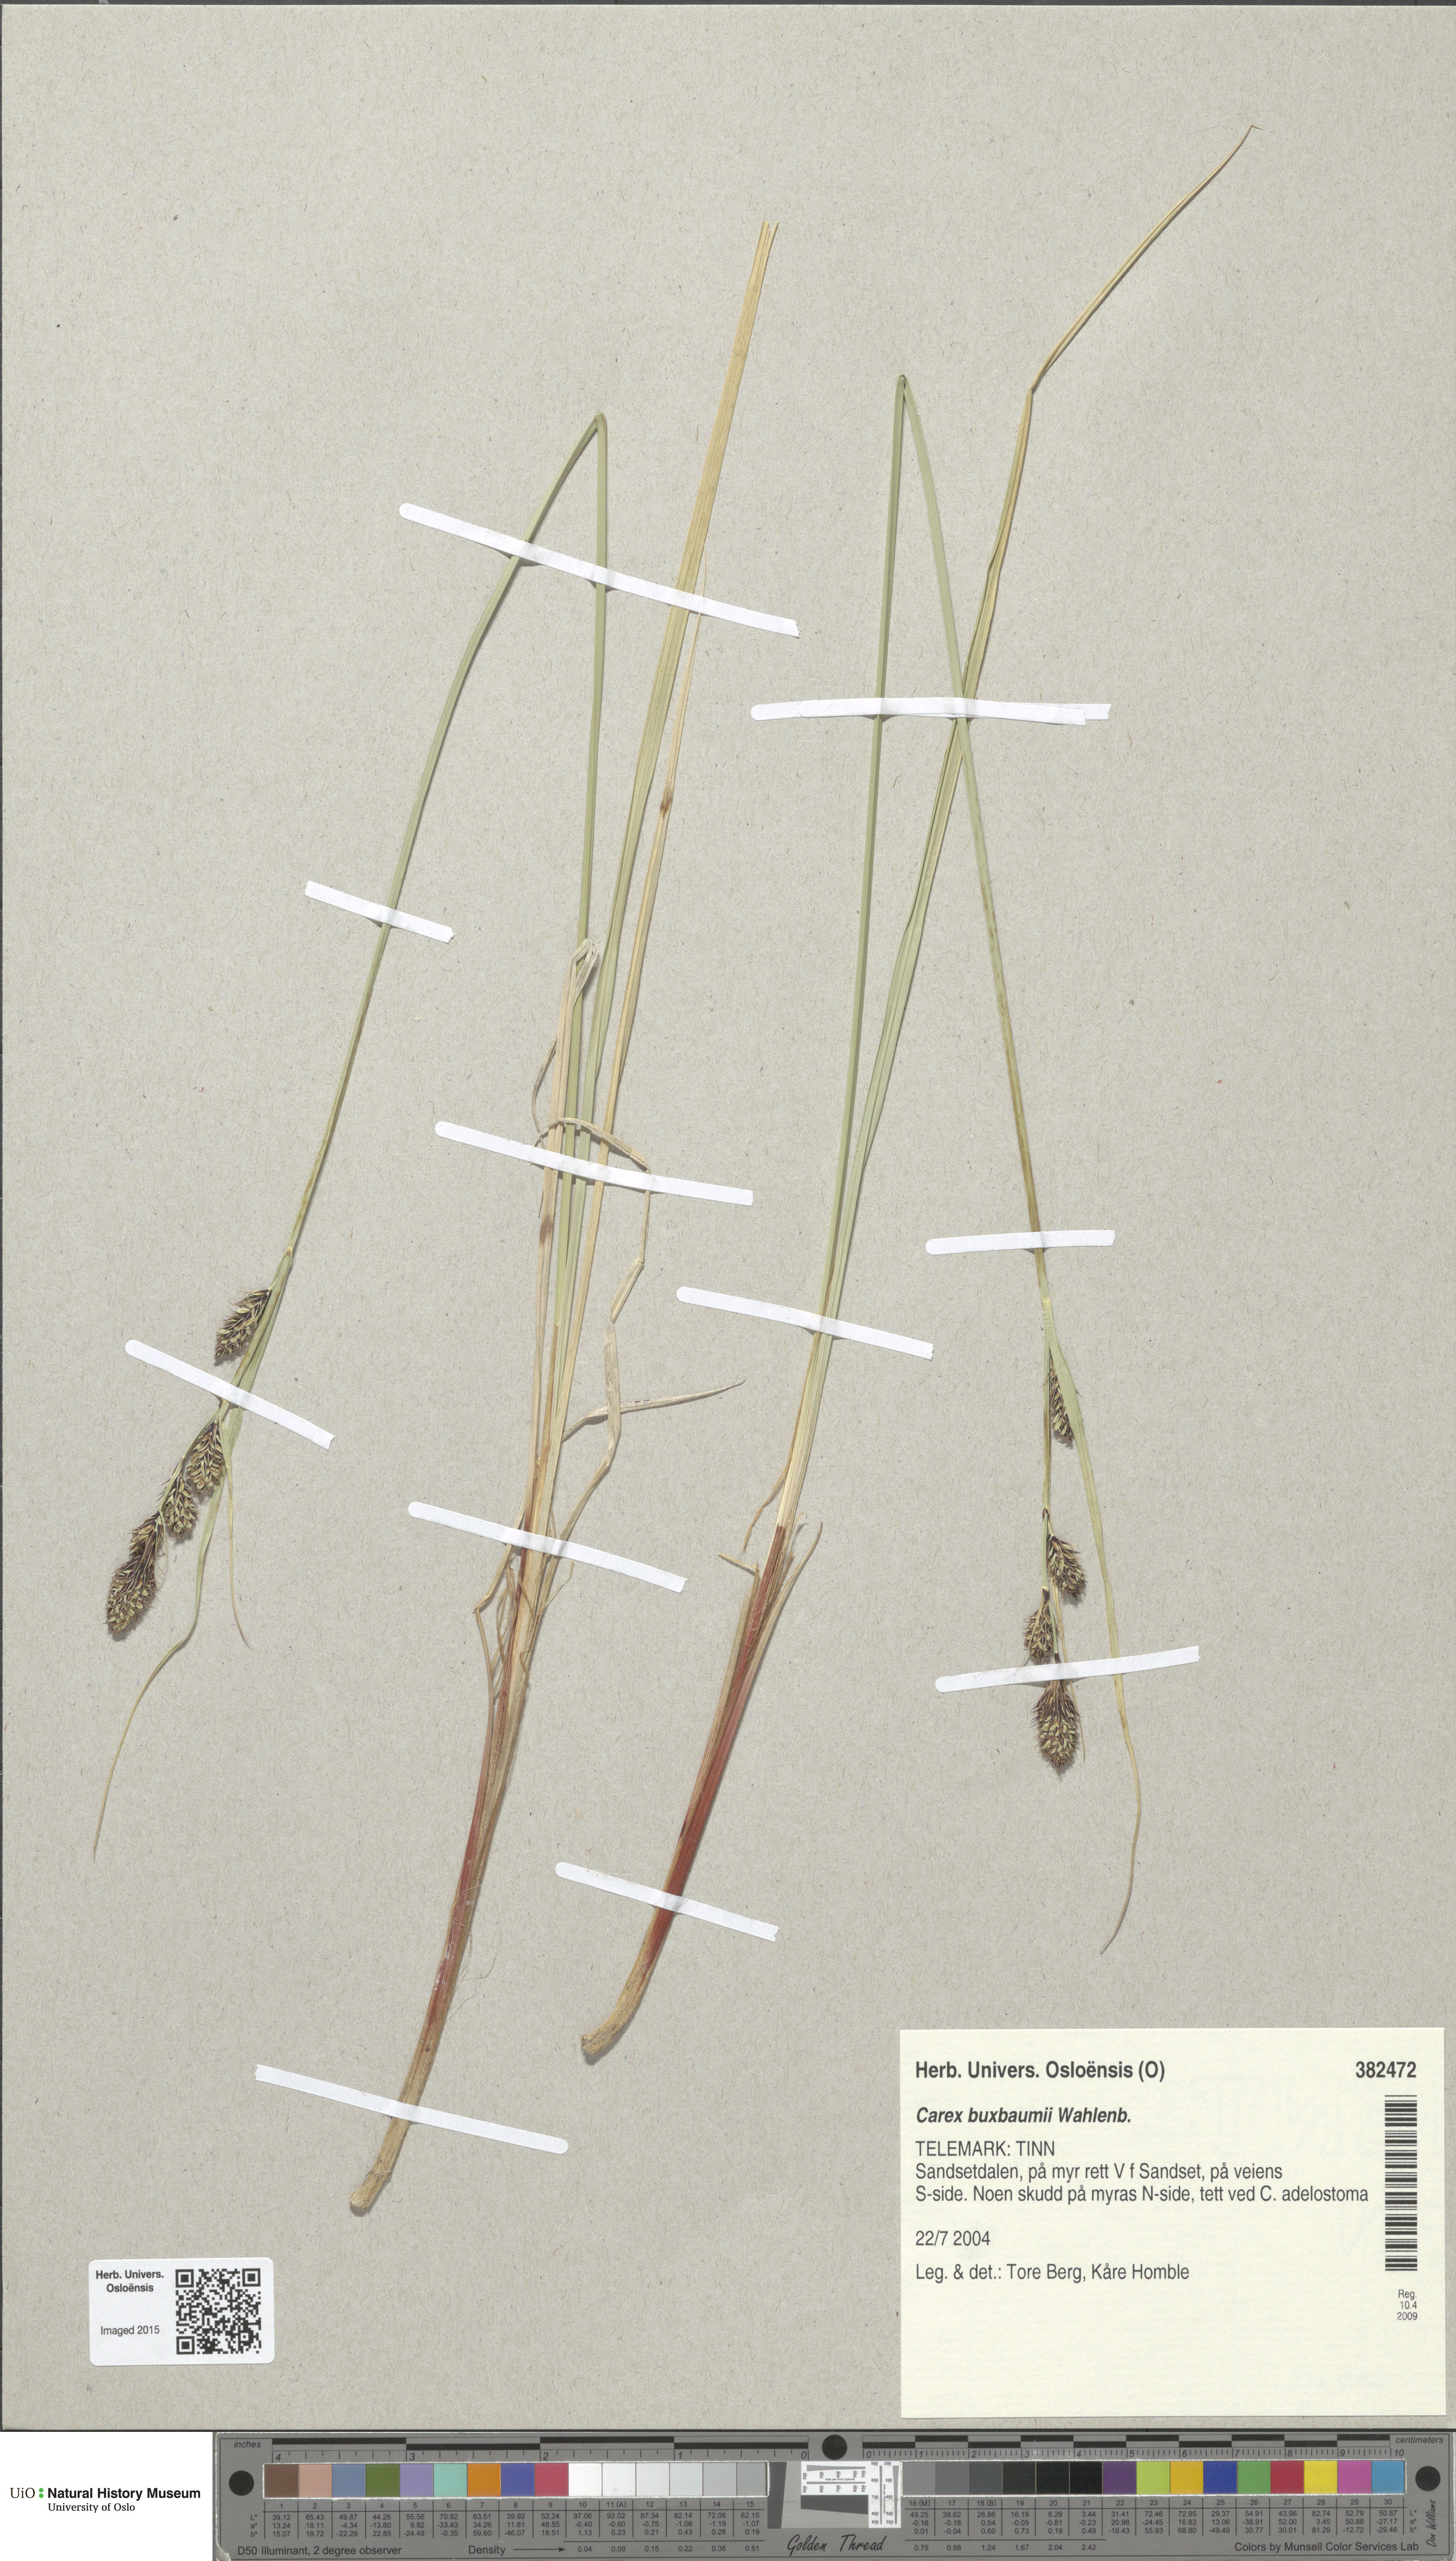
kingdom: Plantae
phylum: Tracheophyta
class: Liliopsida
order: Poales
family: Cyperaceae
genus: Carex
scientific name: Carex buxbaumii
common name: Club sedge
